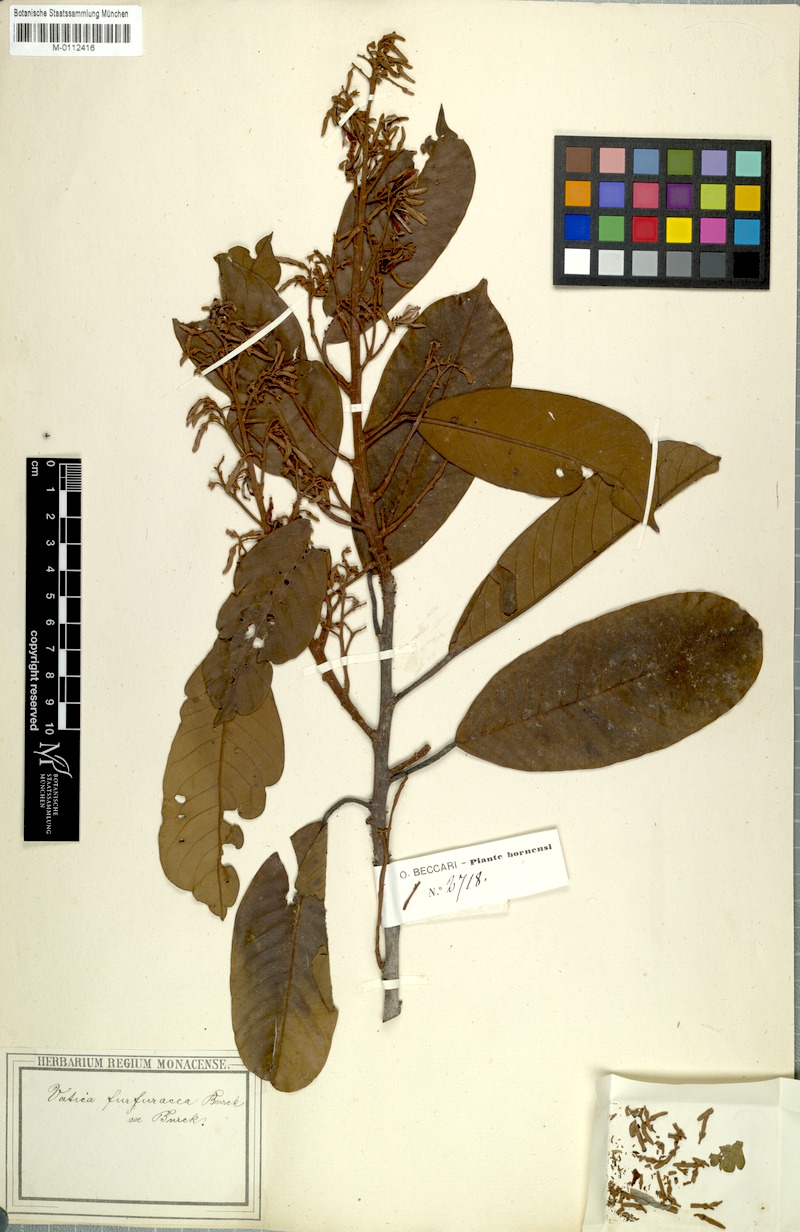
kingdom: Plantae
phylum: Tracheophyta
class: Magnoliopsida
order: Malvales
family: Dipterocarpaceae
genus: Vatica
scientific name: Vatica oblongifolia
